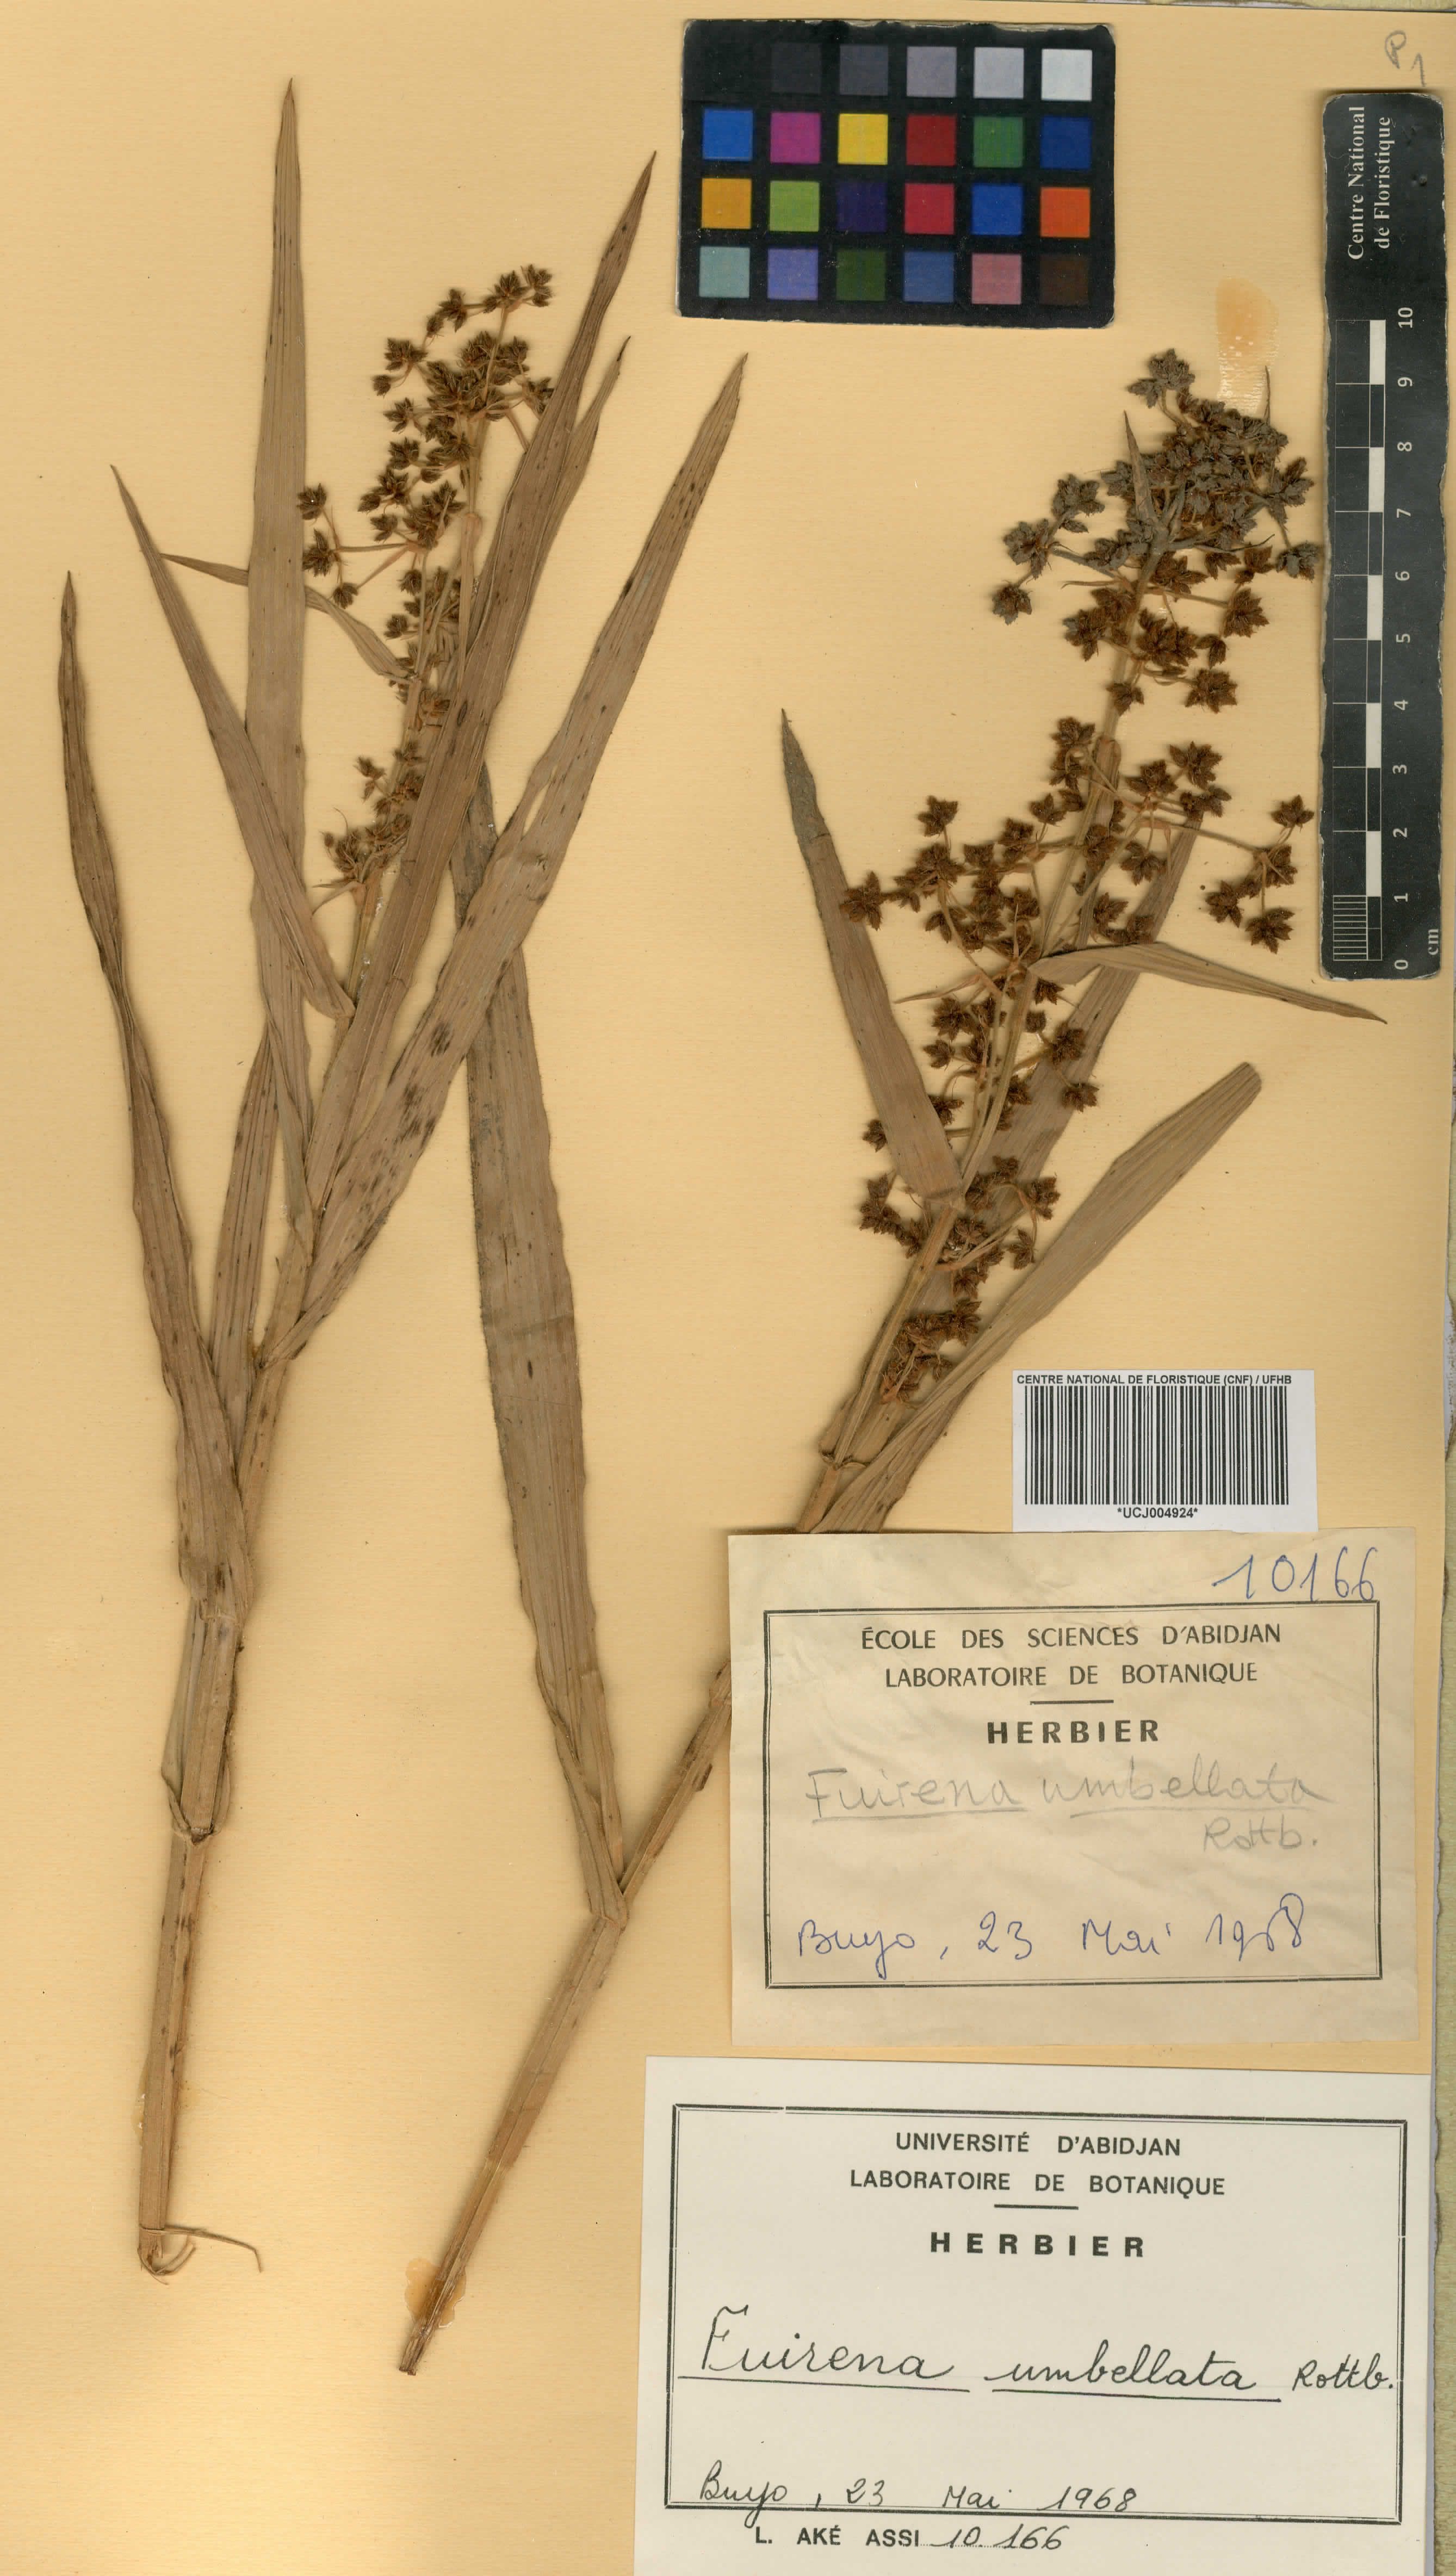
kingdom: Plantae
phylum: Tracheophyta
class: Liliopsida
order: Poales
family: Cyperaceae
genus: Fuirena
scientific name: Fuirena umbellata
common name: Yefen
